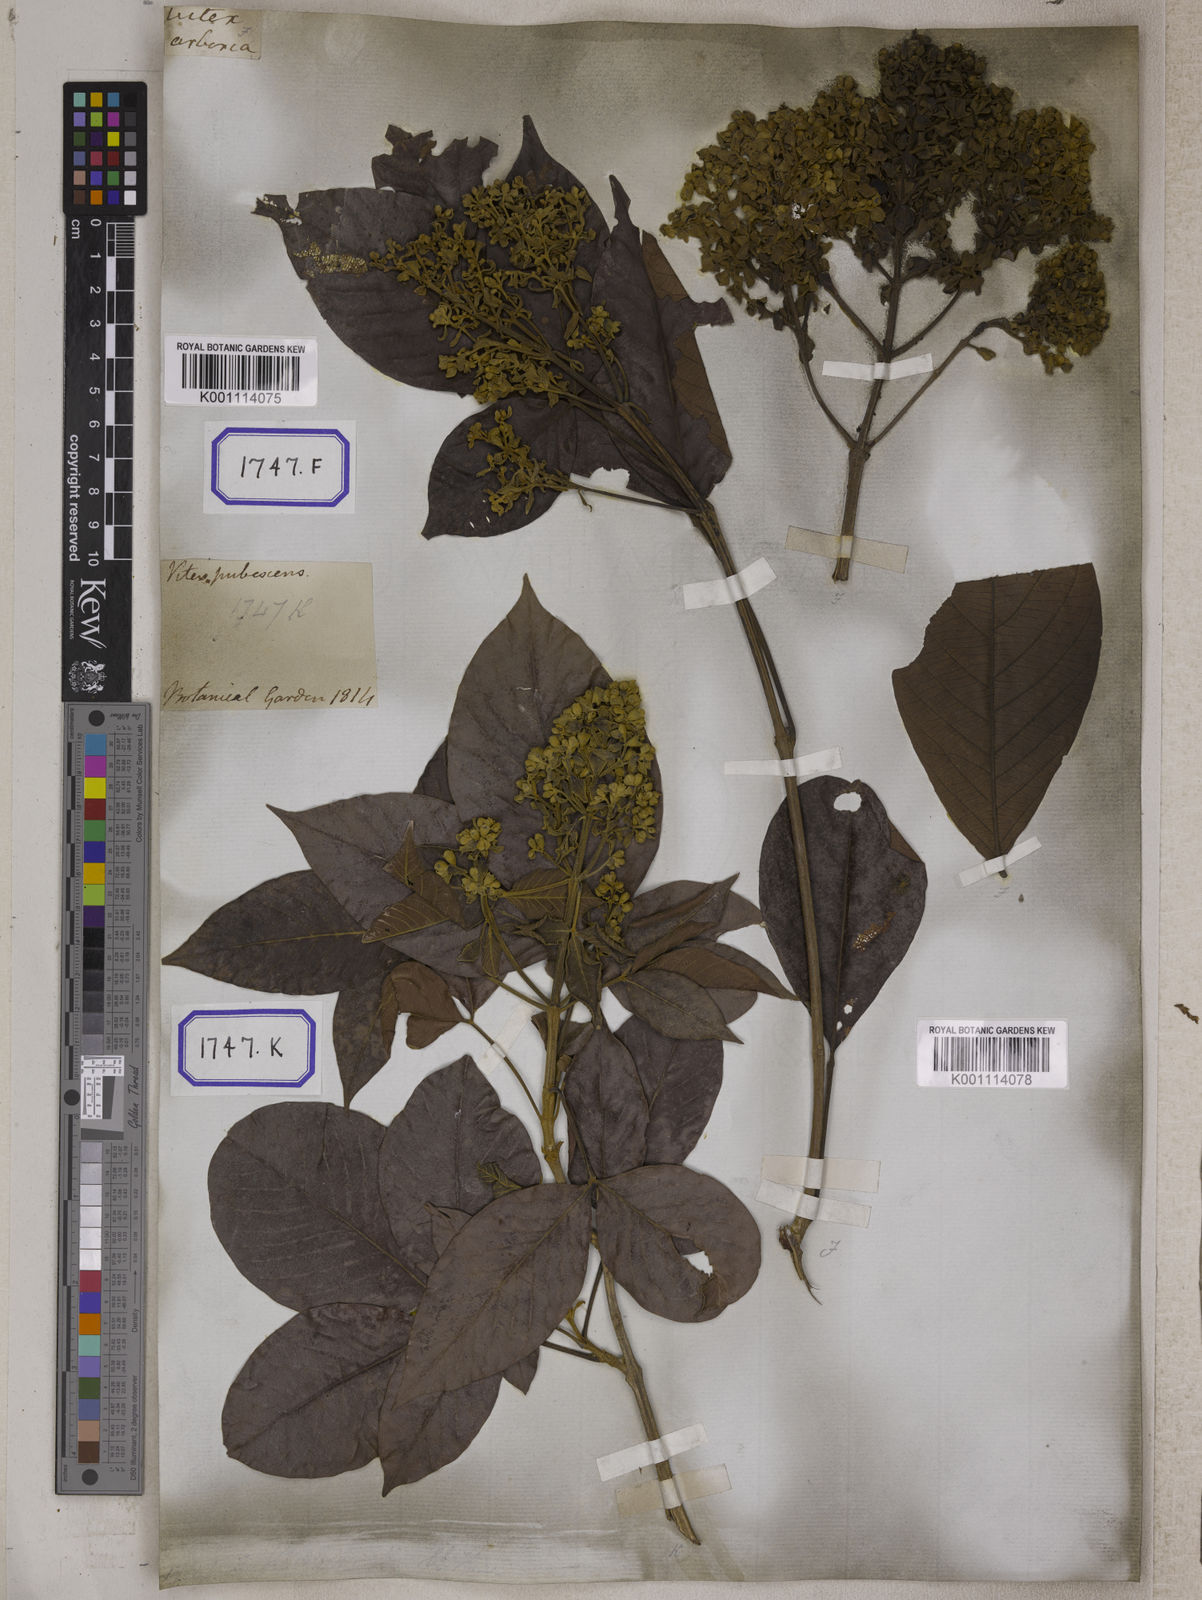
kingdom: Plantae
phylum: Tracheophyta
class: Magnoliopsida
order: Lamiales
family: Lamiaceae
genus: Vitex
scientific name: Vitex pinnata
